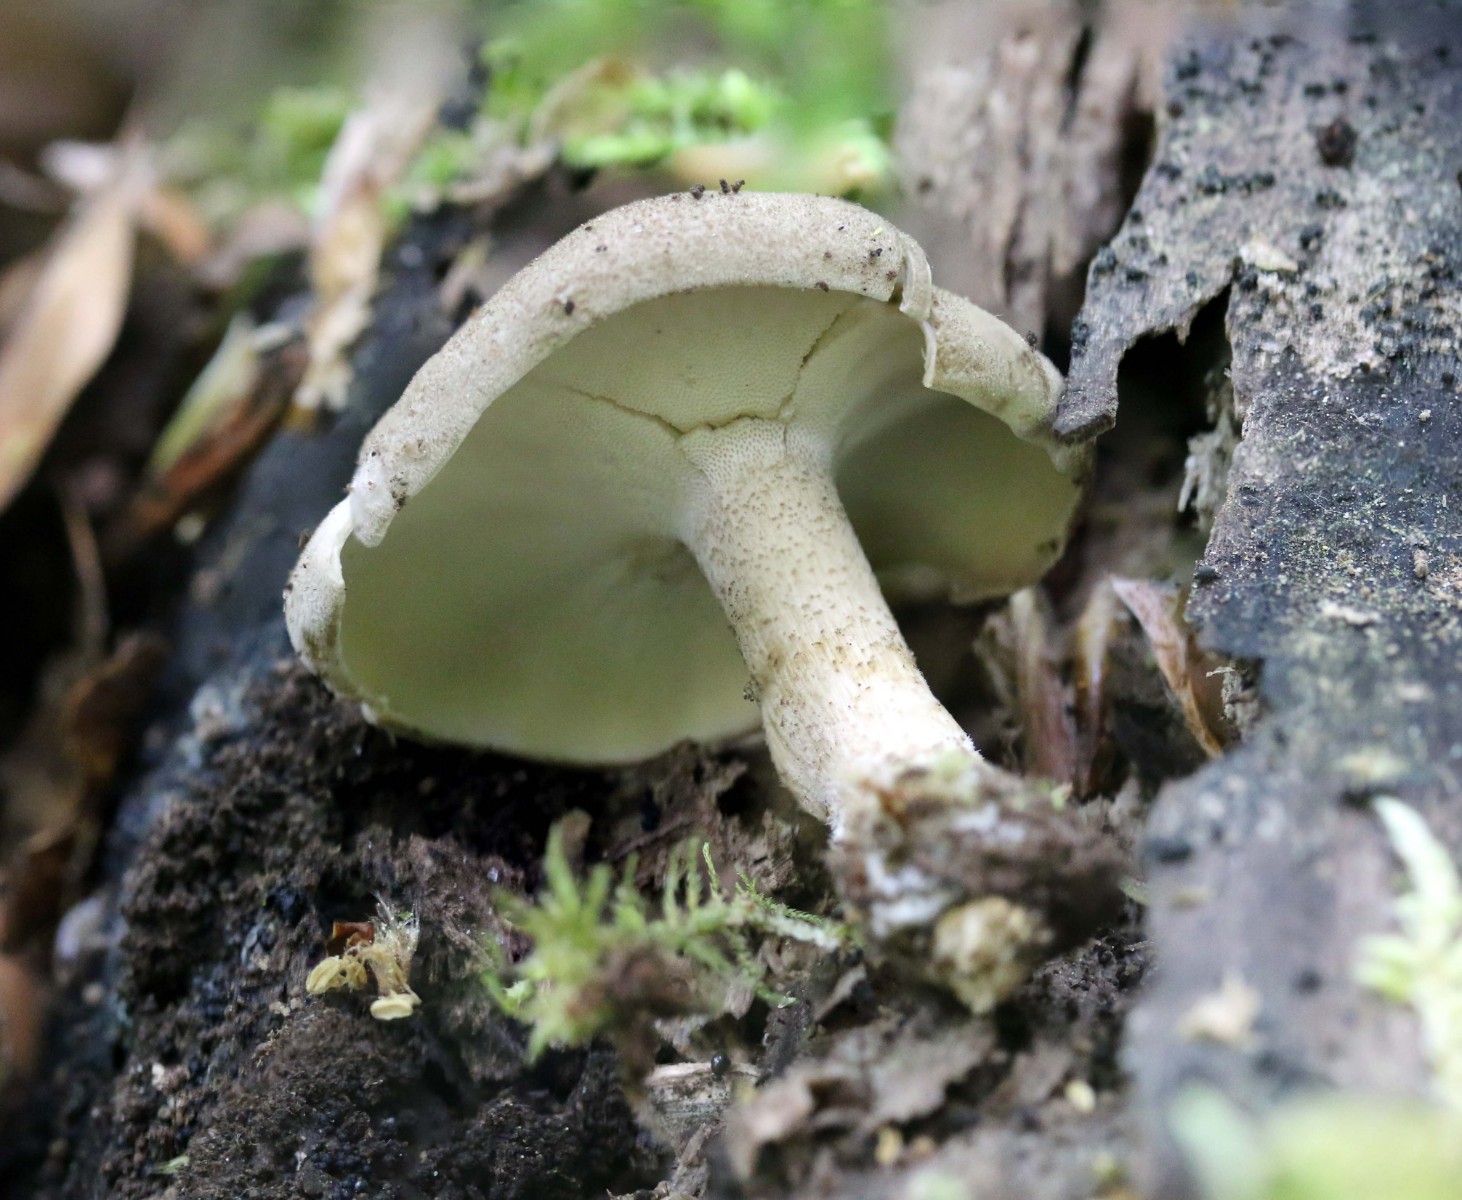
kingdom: Fungi
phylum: Basidiomycota
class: Agaricomycetes
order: Polyporales
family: Polyporaceae
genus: Lentinus
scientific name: Lentinus substrictus
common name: forårs-stilkporesvamp
